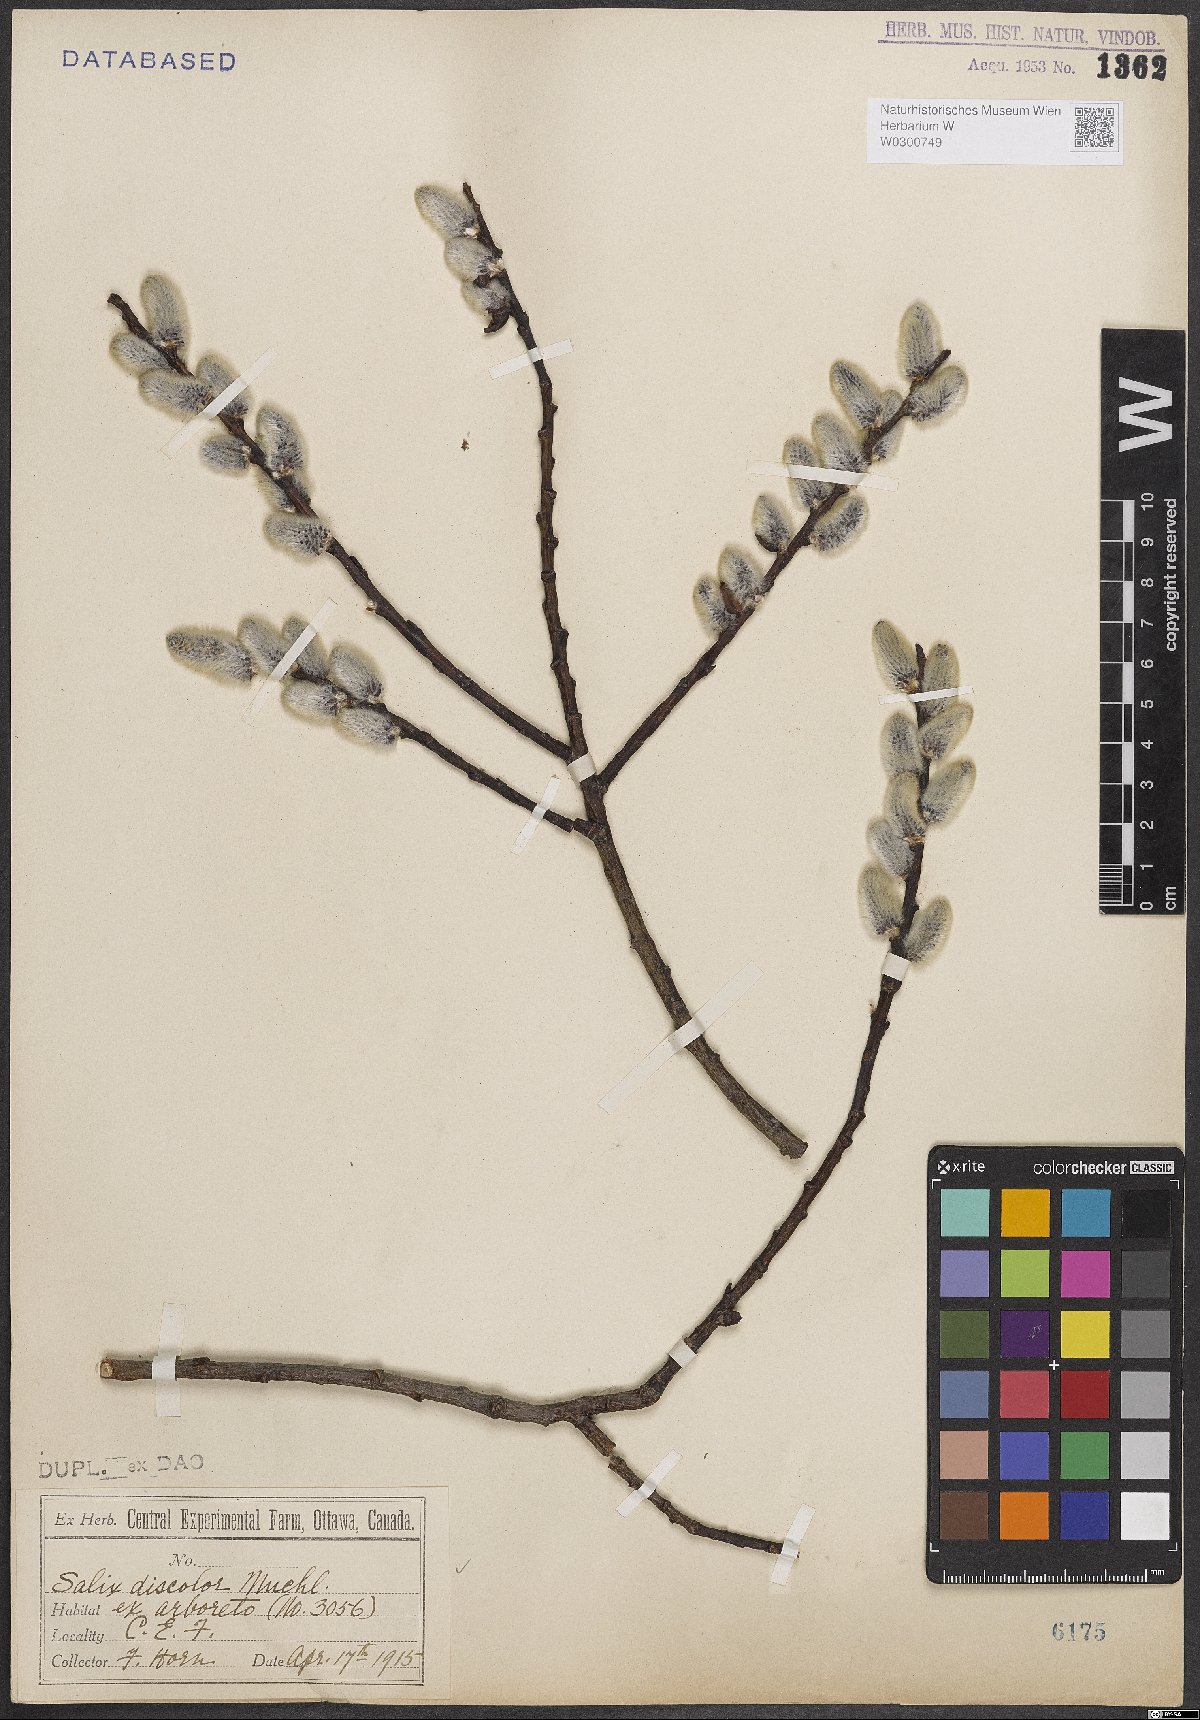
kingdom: Plantae
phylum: Tracheophyta
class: Magnoliopsida
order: Malpighiales
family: Salicaceae
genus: Salix
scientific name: Salix discolor
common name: Glaucous willow
